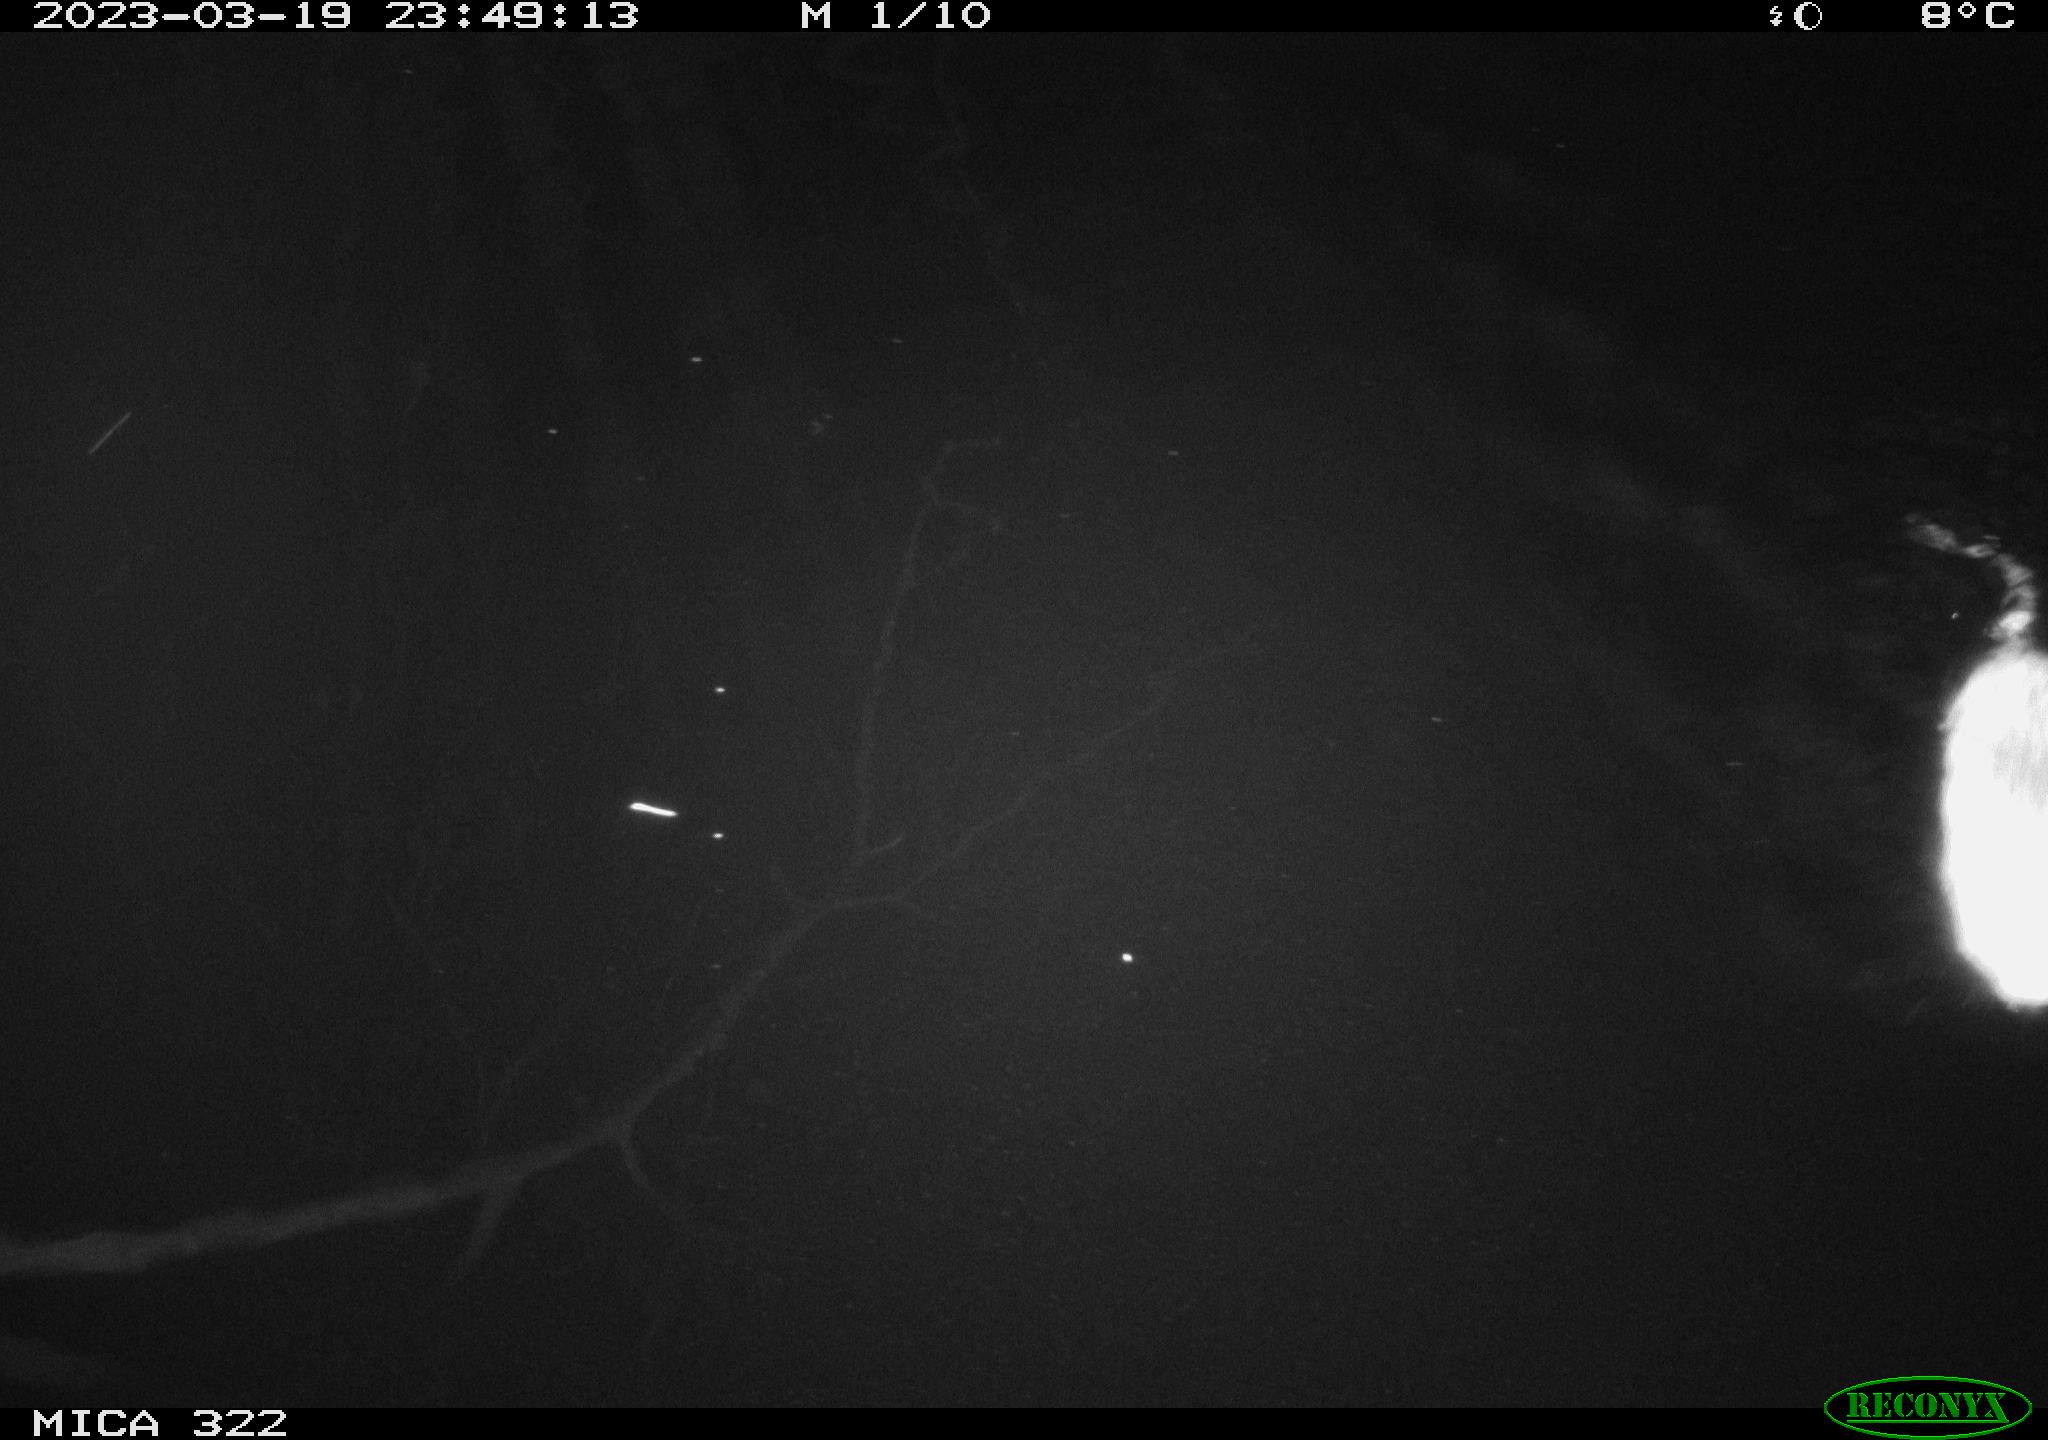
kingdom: Animalia
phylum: Chordata
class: Mammalia
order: Rodentia
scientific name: Rodentia
